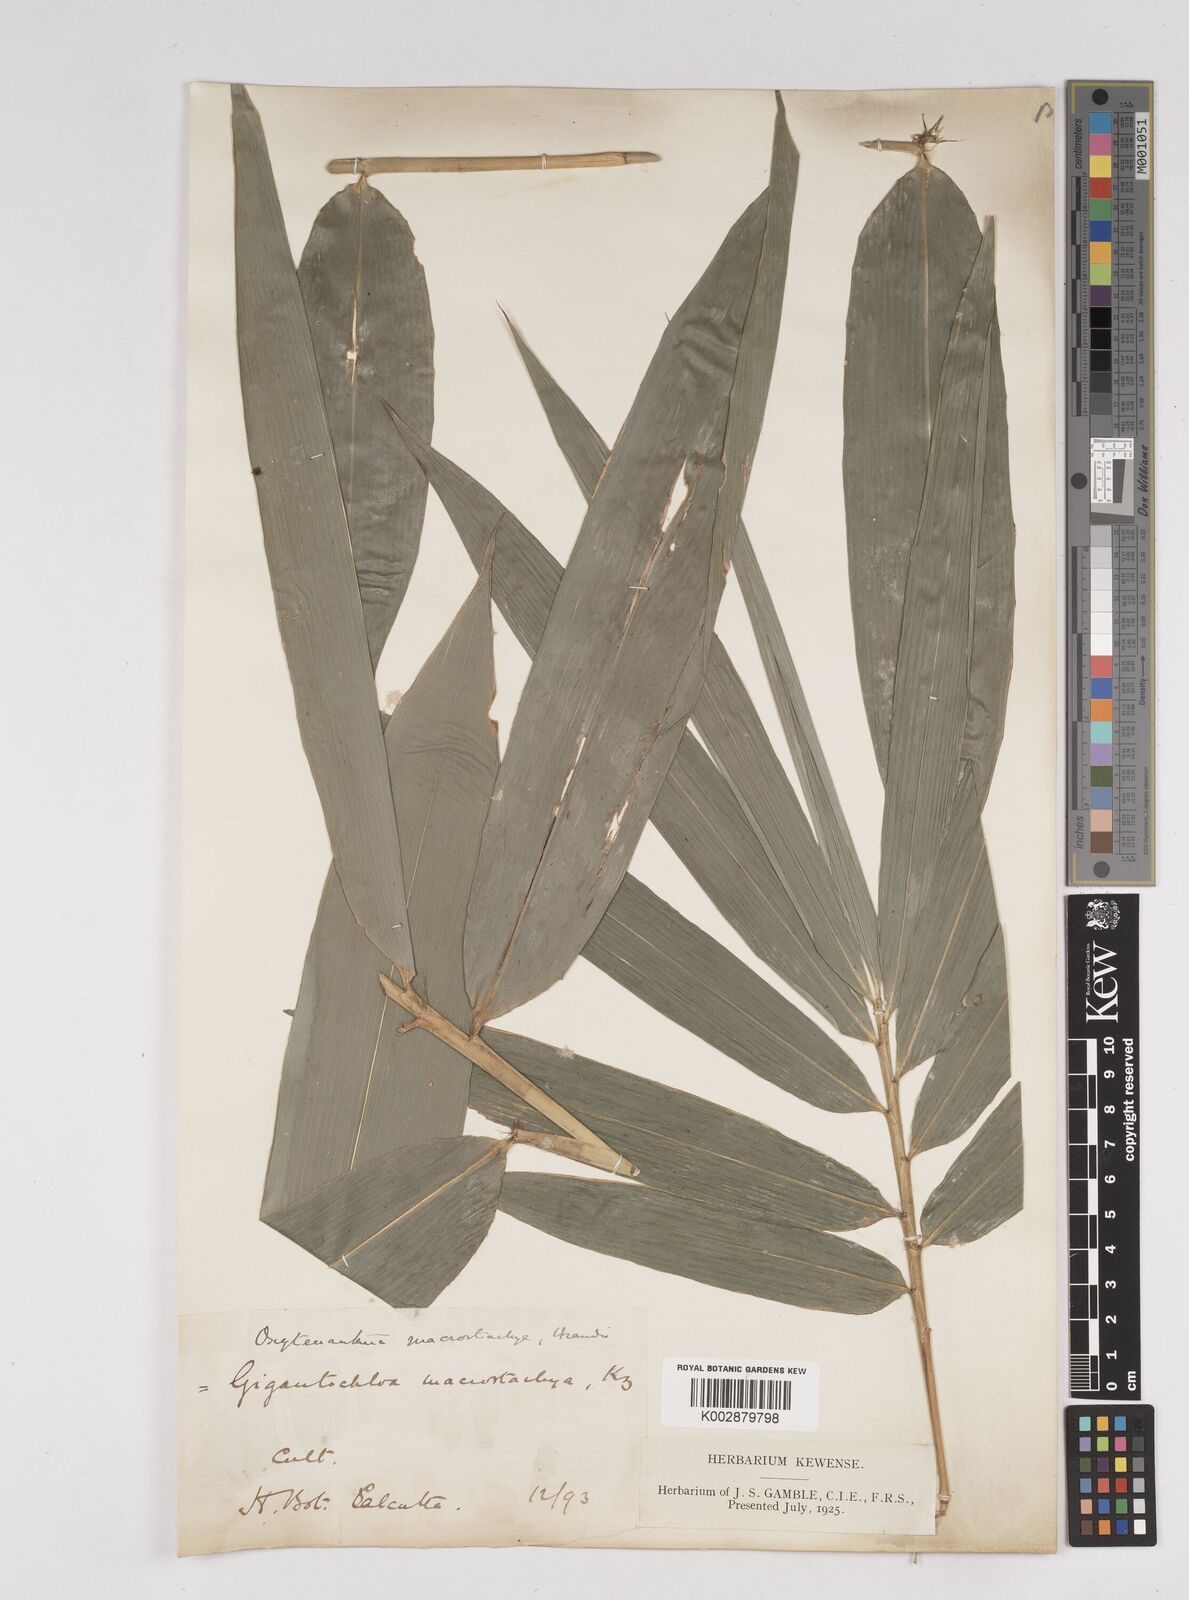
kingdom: Plantae
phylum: Tracheophyta
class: Liliopsida
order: Poales
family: Poaceae
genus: Gigantochloa
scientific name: Gigantochloa macrostachya
